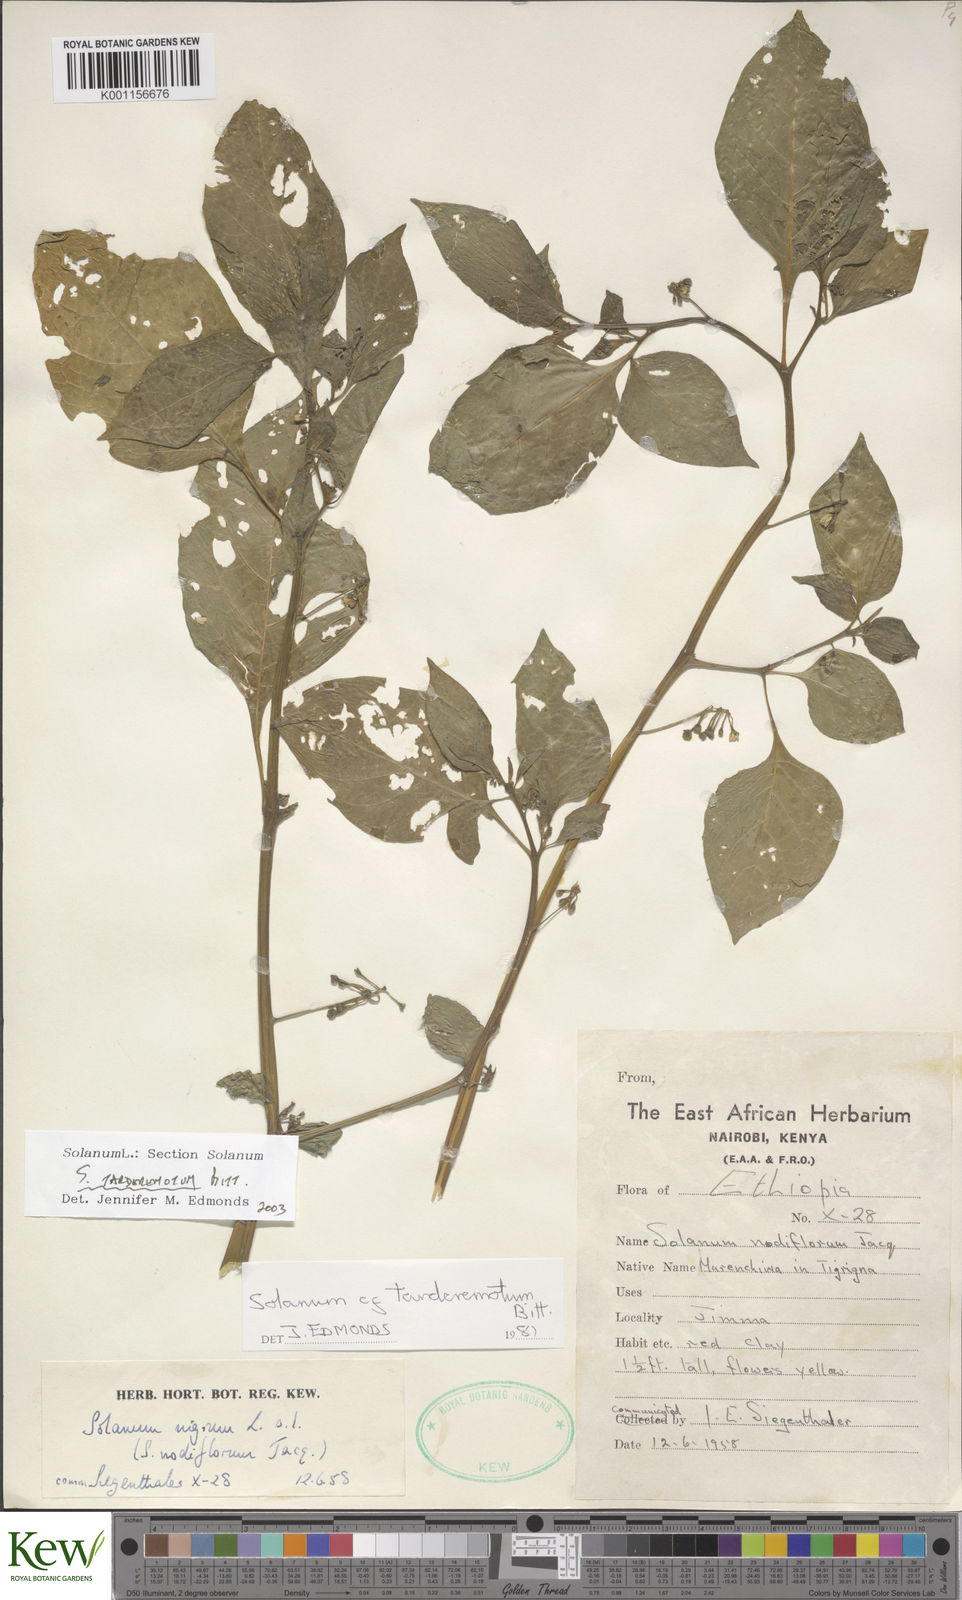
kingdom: Plantae
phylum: Tracheophyta
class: Magnoliopsida
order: Solanales
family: Solanaceae
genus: Solanum
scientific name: Solanum tarderemotum
